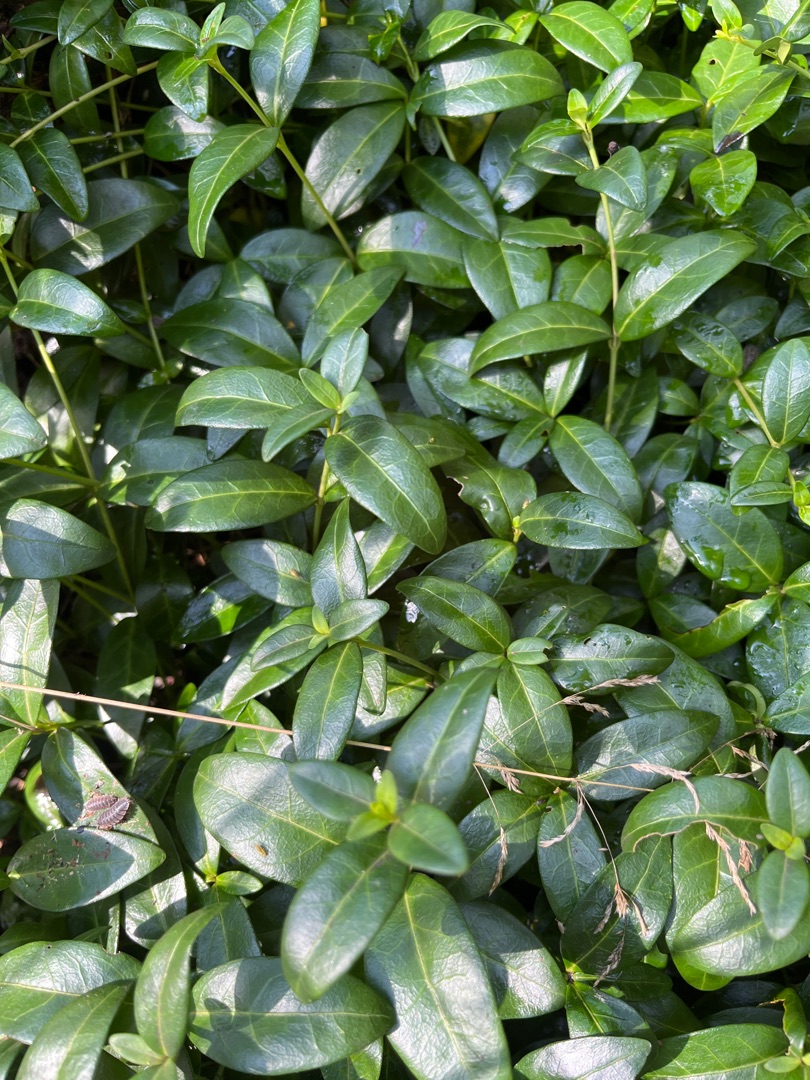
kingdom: Plantae
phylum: Tracheophyta
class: Magnoliopsida
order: Gentianales
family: Apocynaceae
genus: Vinca
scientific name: Vinca minor
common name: Liden singrøn
